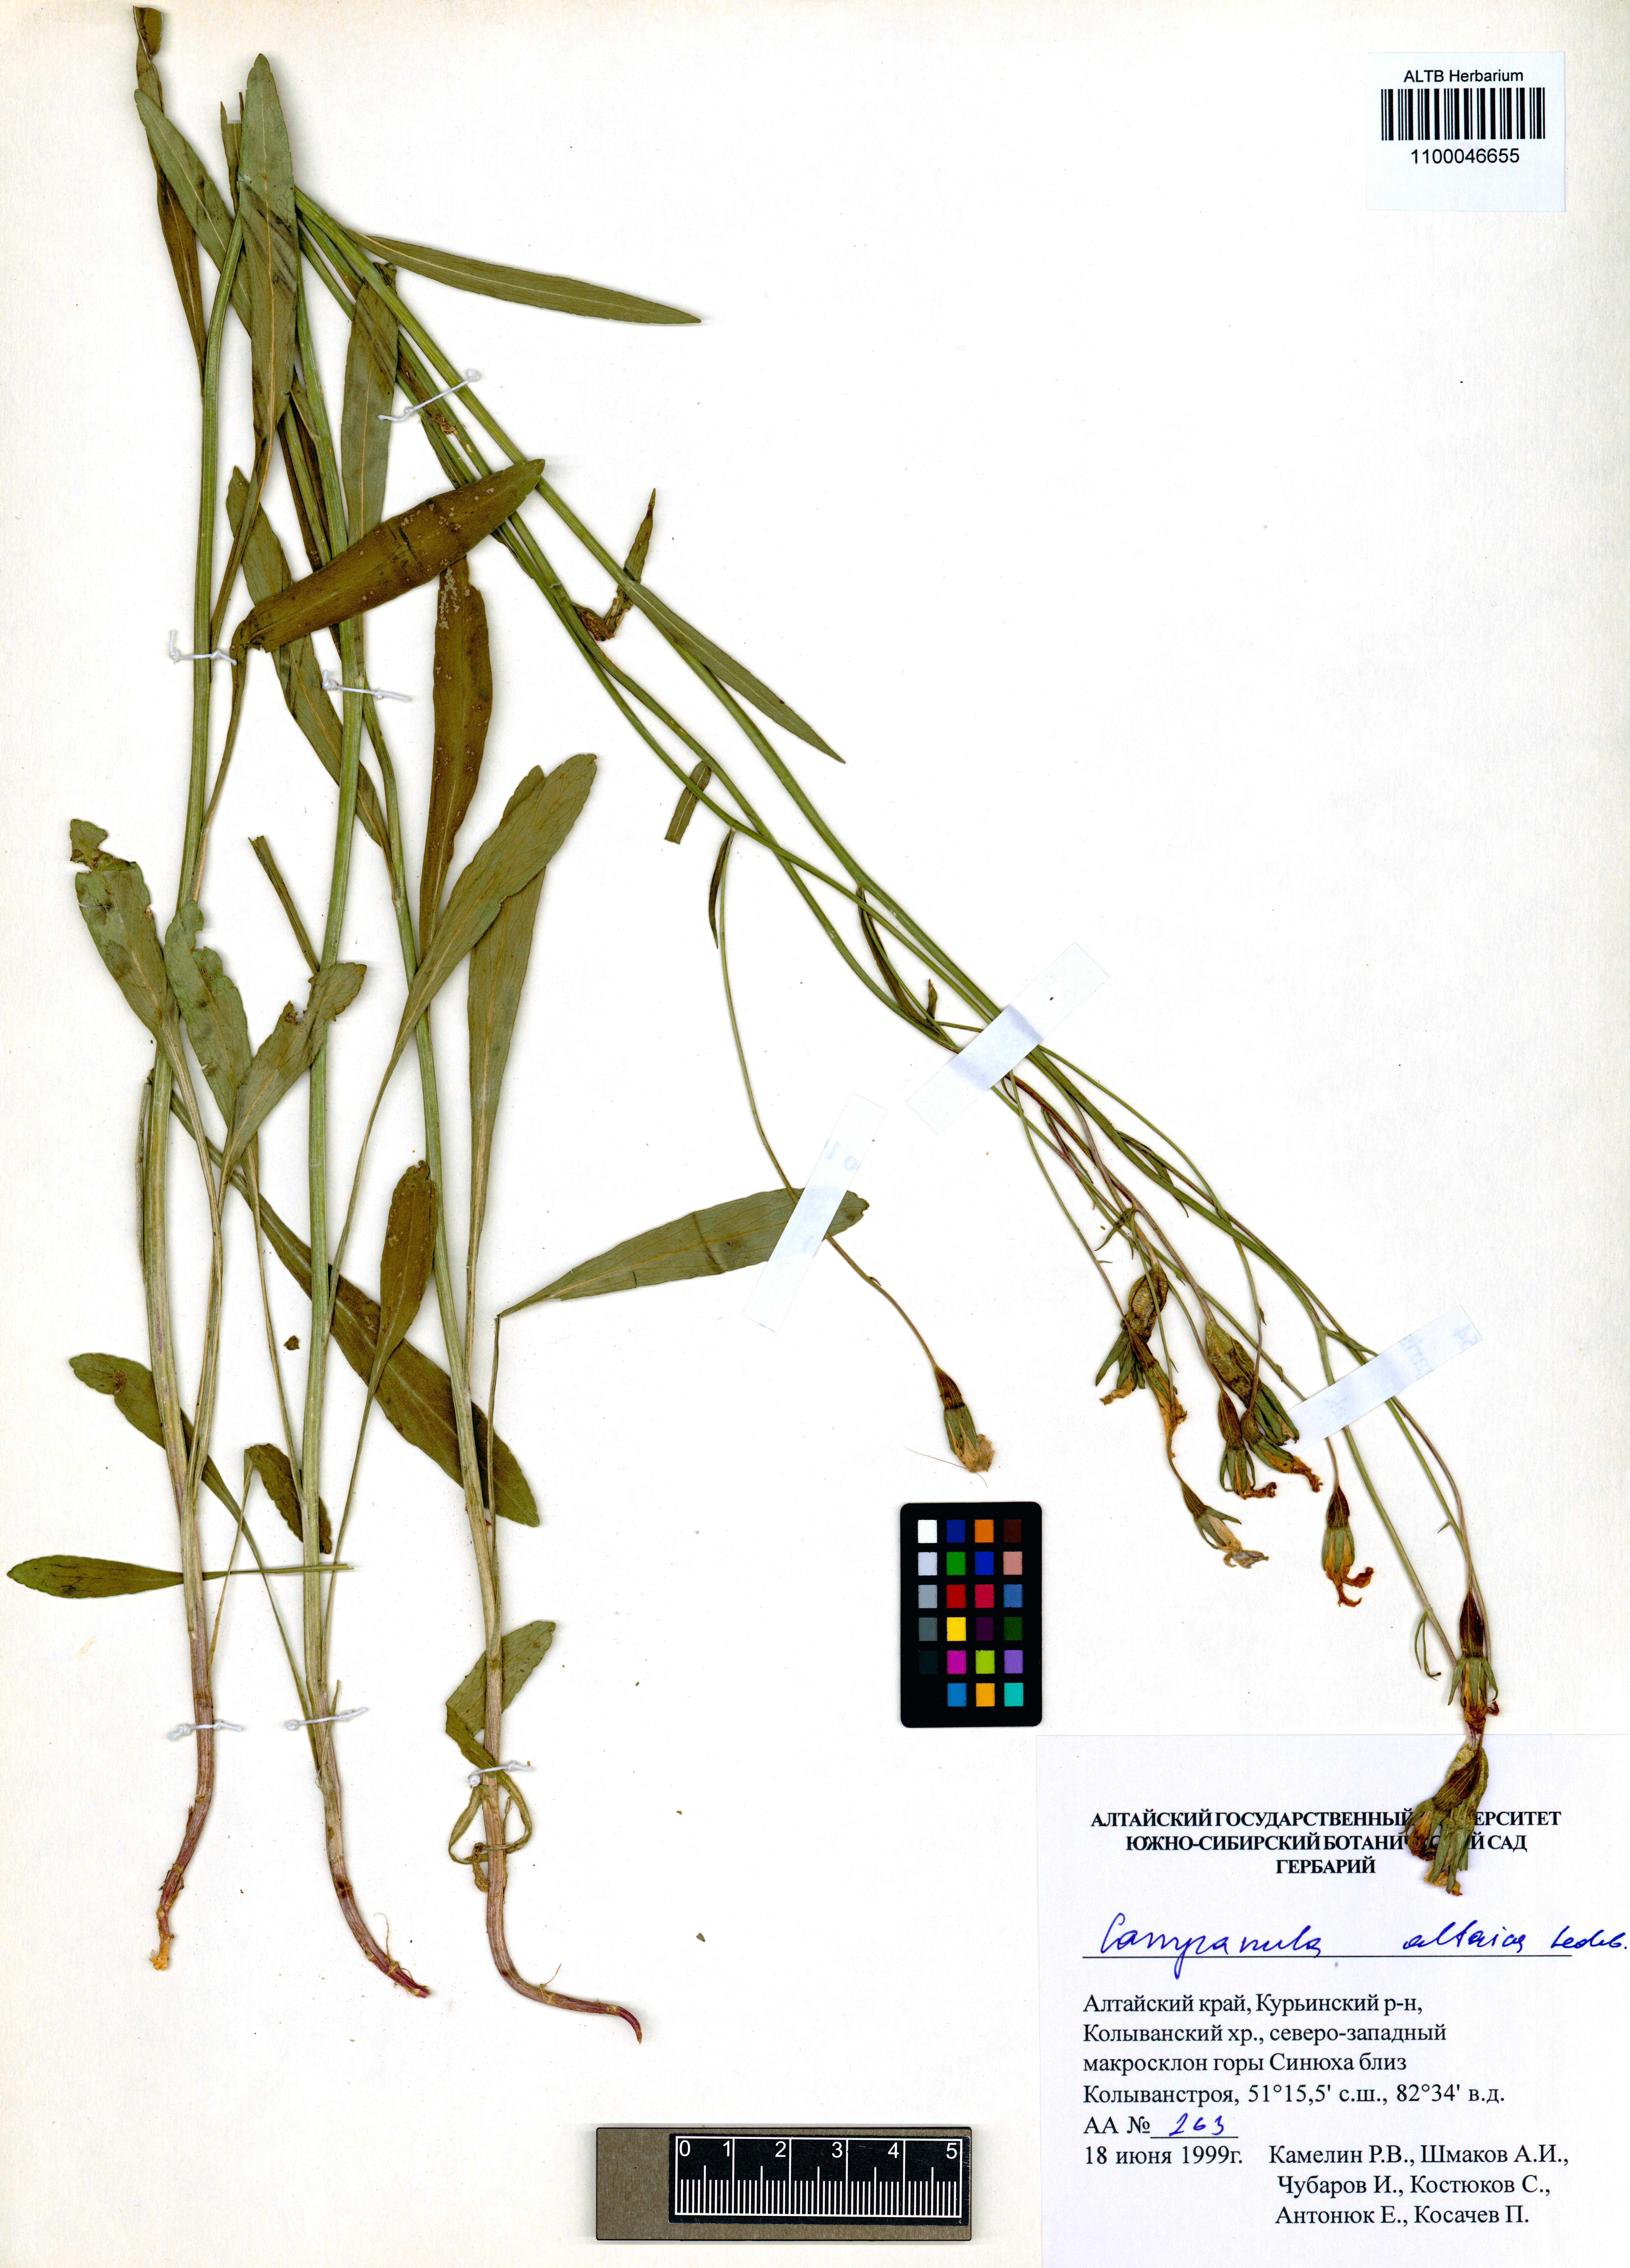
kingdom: Plantae
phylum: Tracheophyta
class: Magnoliopsida
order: Asterales
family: Campanulaceae
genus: Campanula
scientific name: Campanula stevenii
